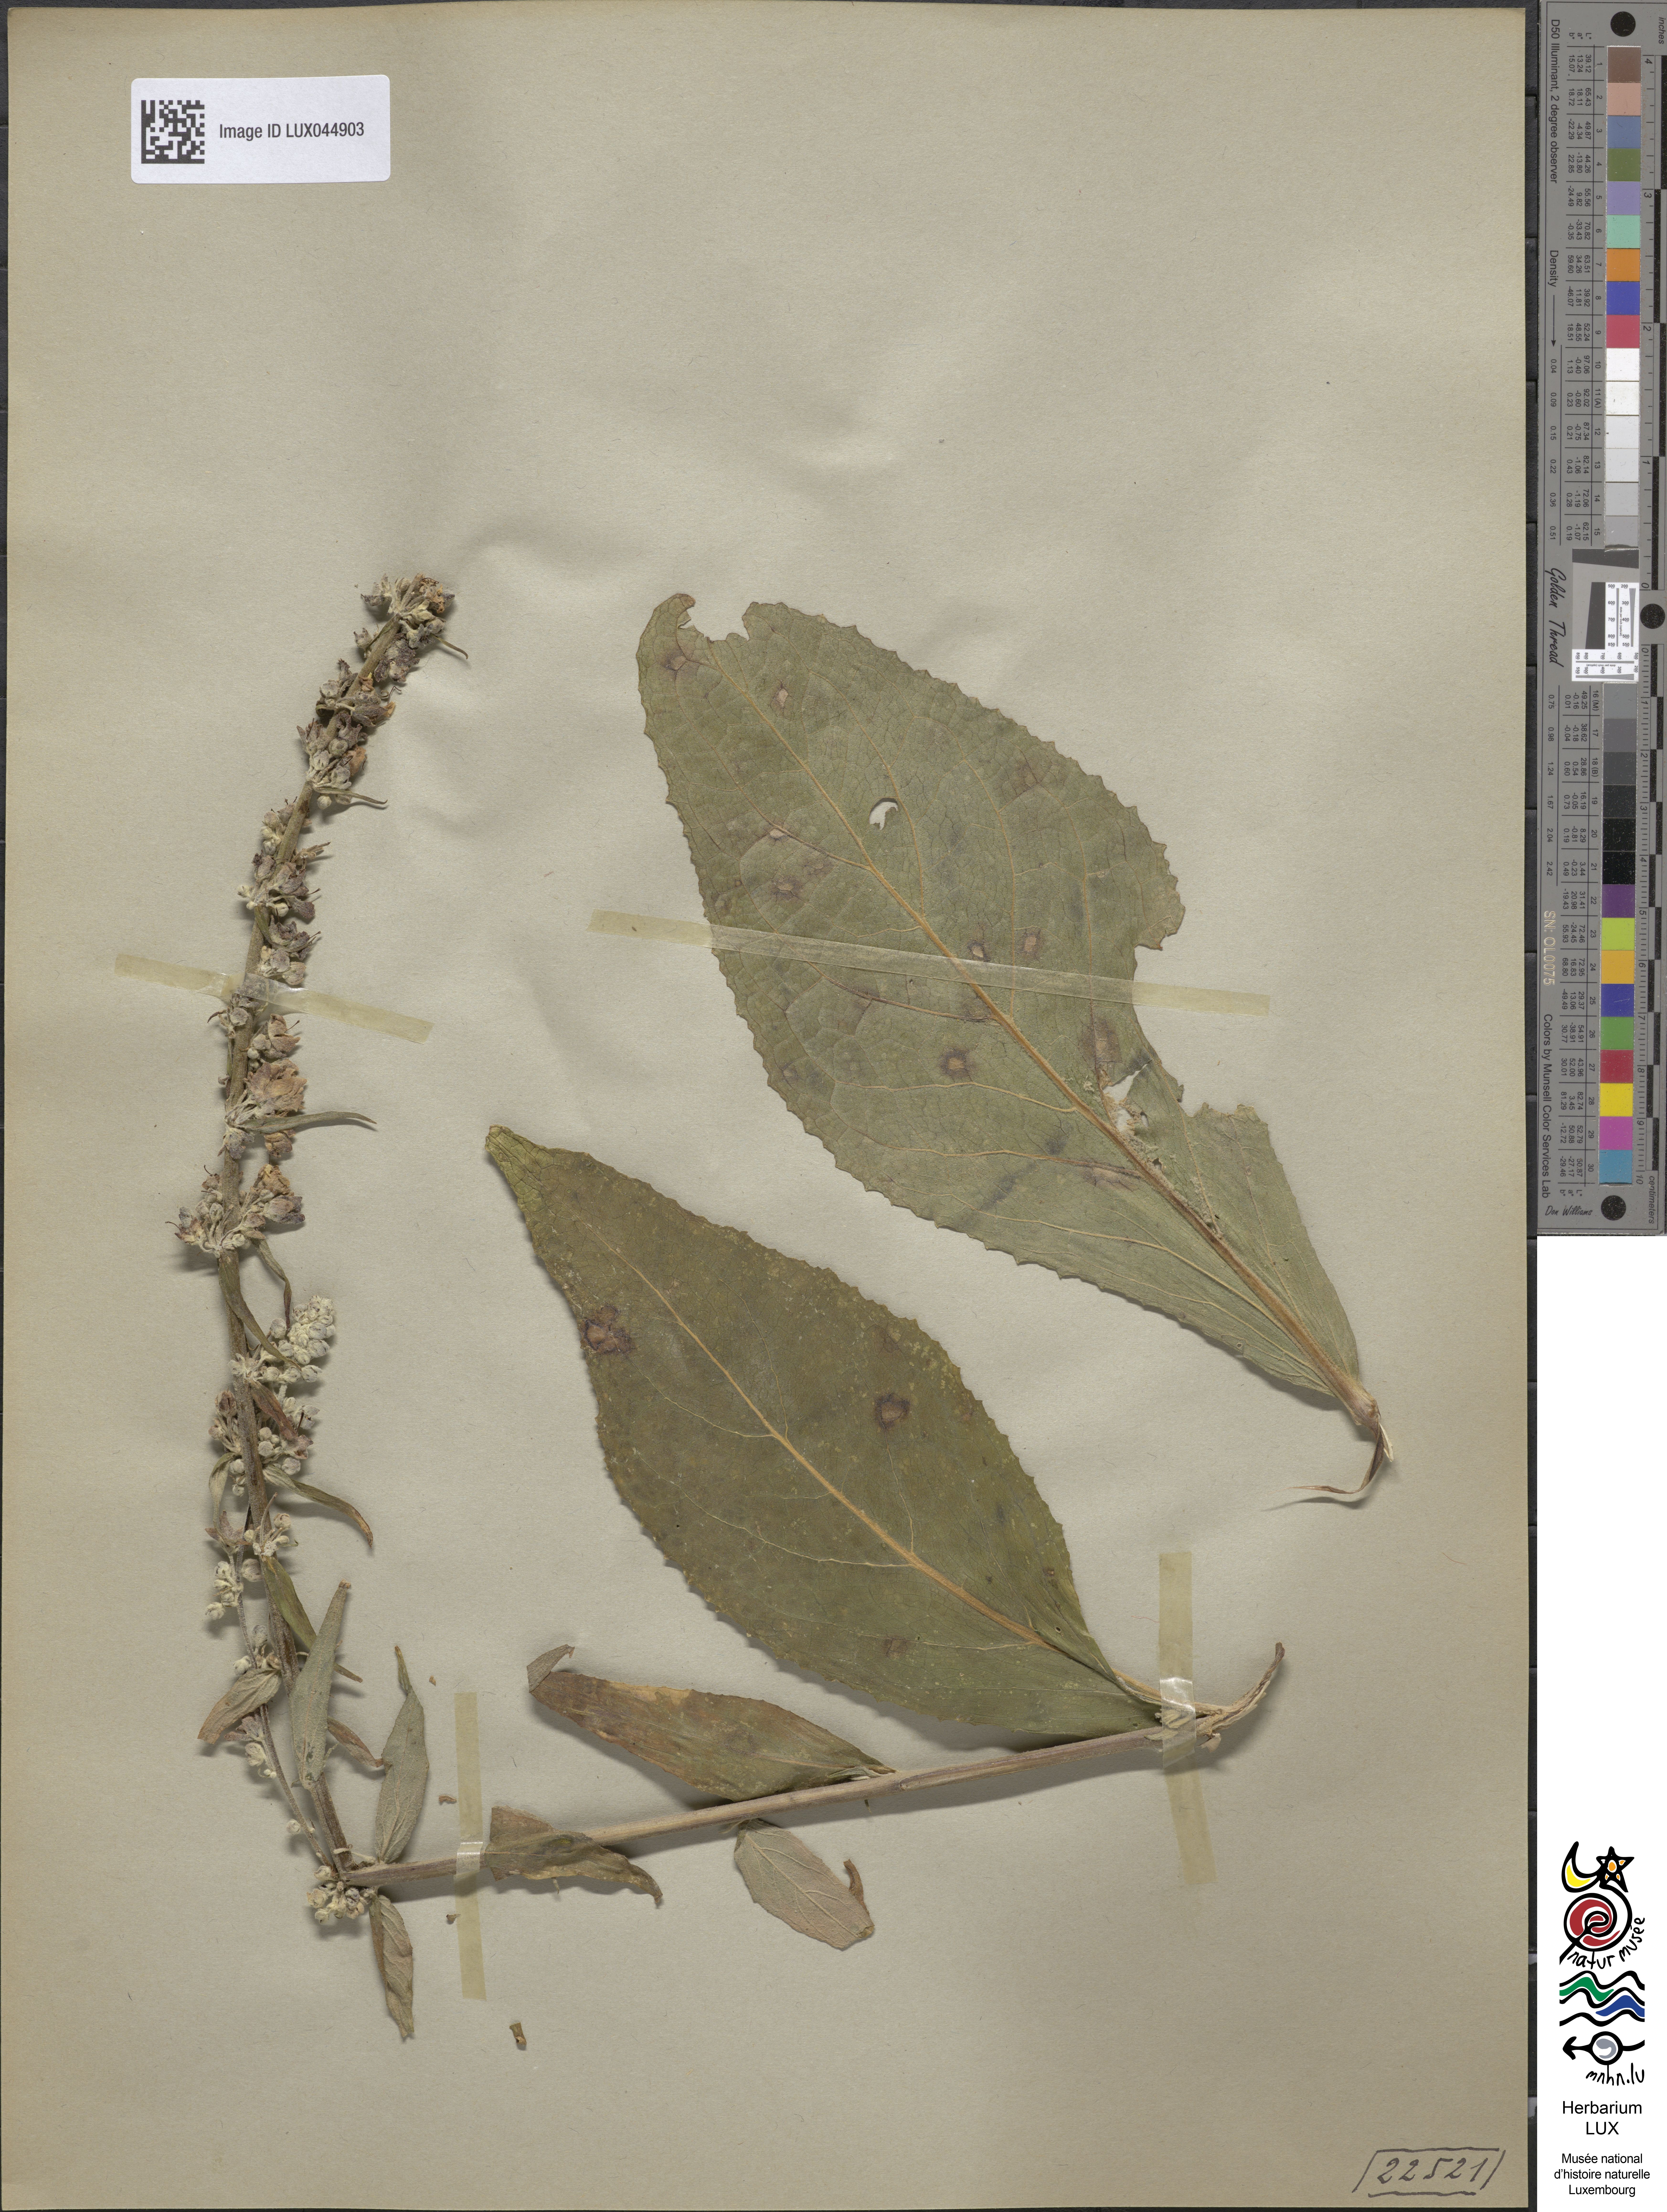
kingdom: Plantae
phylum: Tracheophyta
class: Magnoliopsida
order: Lamiales
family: Scrophulariaceae
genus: Verbascum
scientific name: Verbascum lychnitis
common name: White mullein
